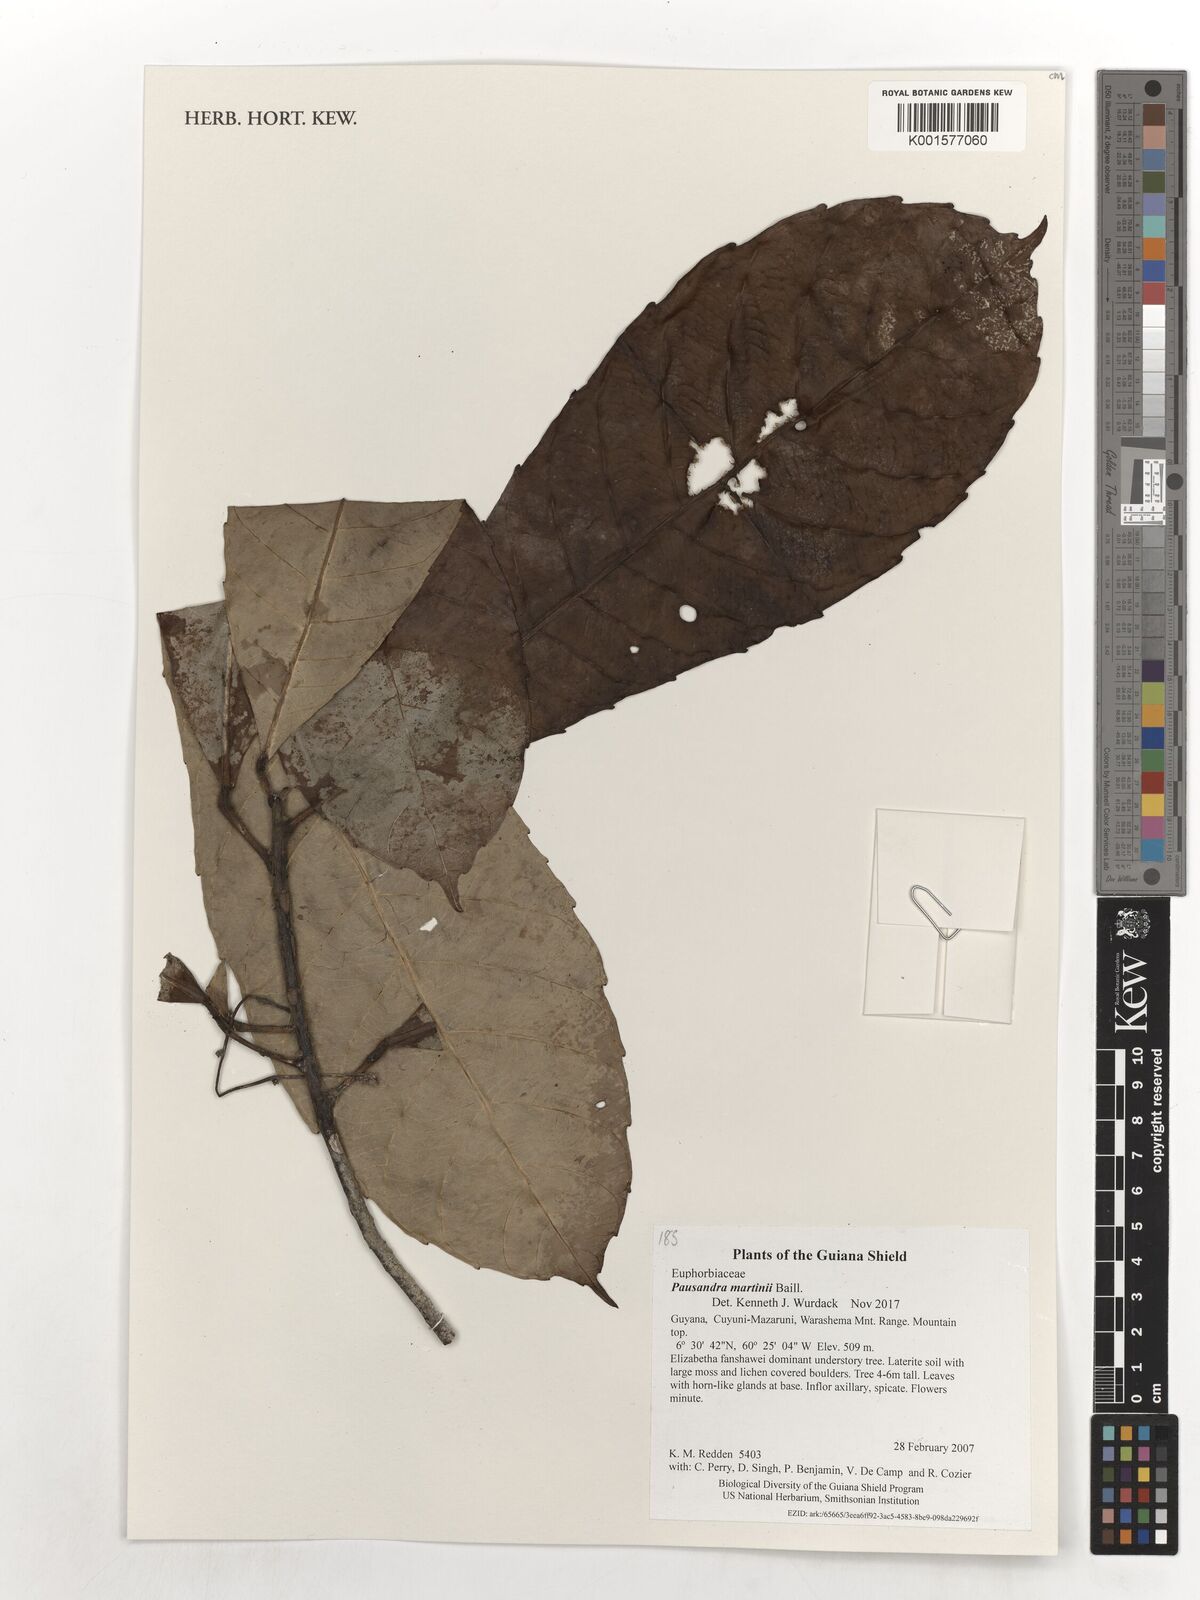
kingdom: Plantae
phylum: Tracheophyta
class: Magnoliopsida
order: Malpighiales
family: Euphorbiaceae
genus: Pausandra
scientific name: Pausandra martini
